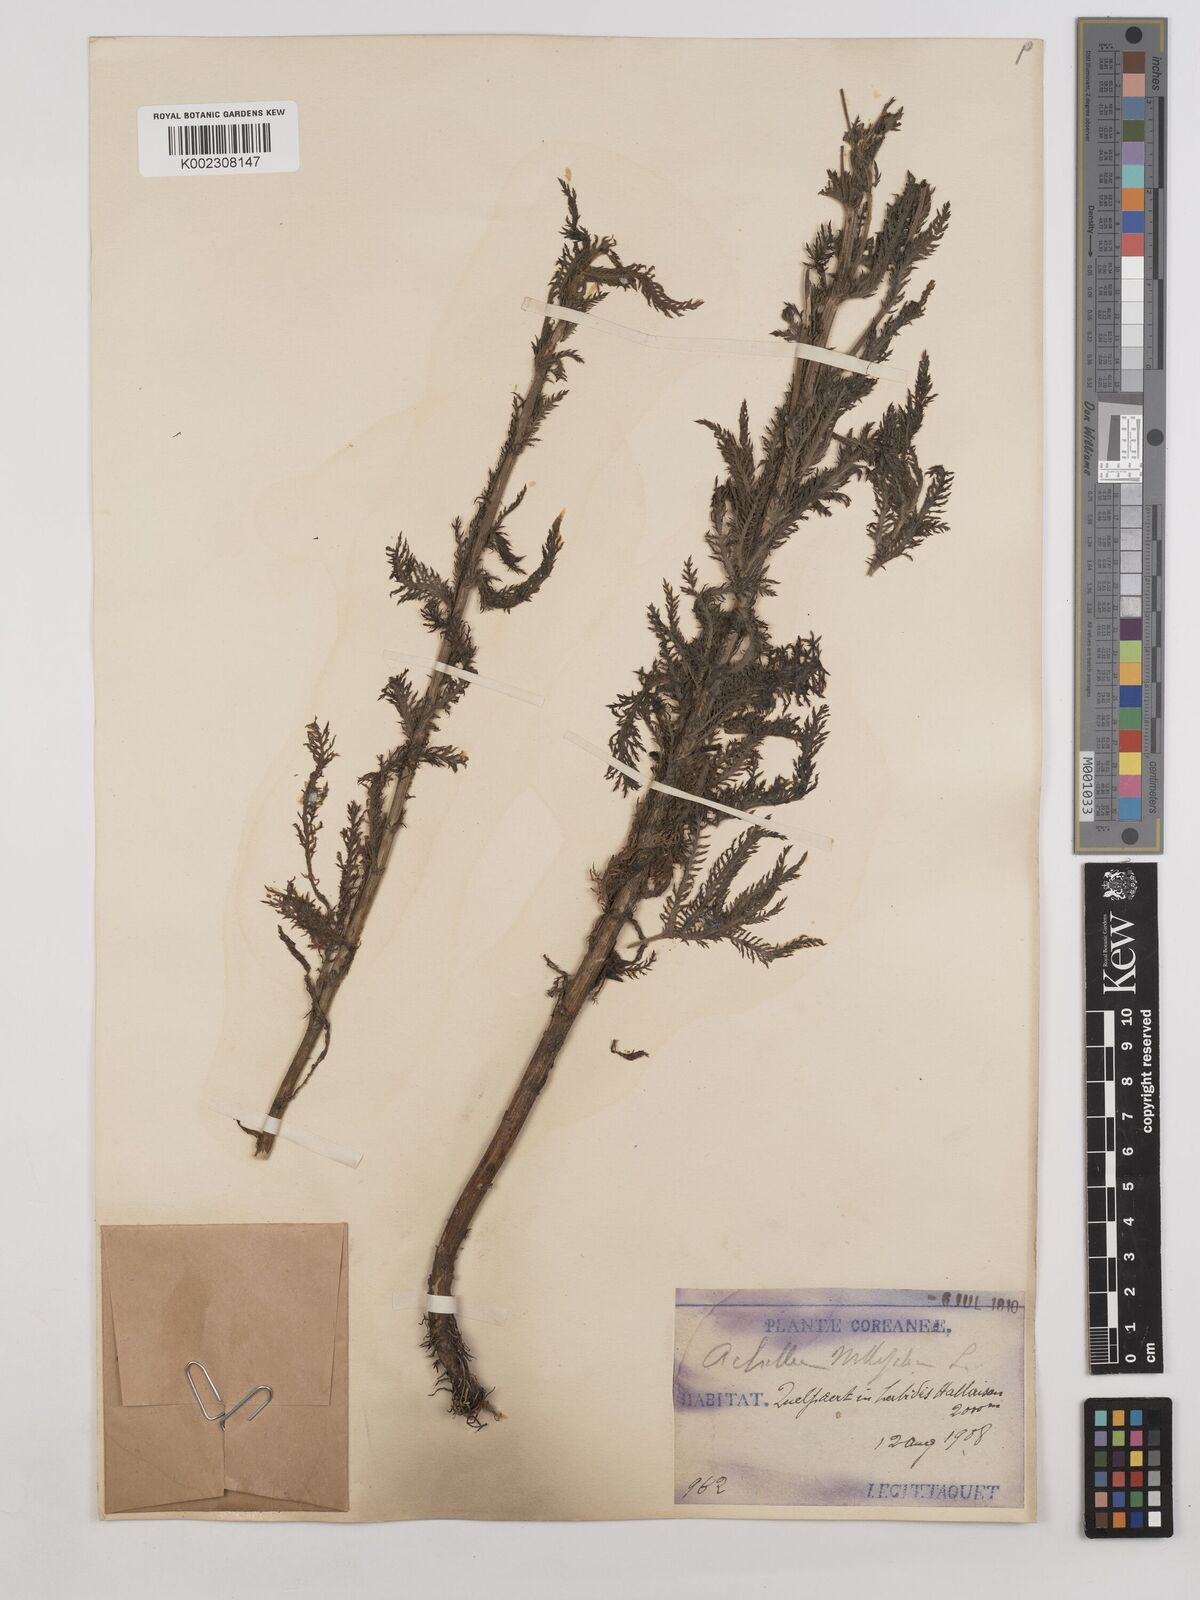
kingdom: Plantae
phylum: Tracheophyta
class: Magnoliopsida
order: Asterales
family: Asteraceae
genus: Achillea
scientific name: Achillea millefolium
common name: Yarrow
